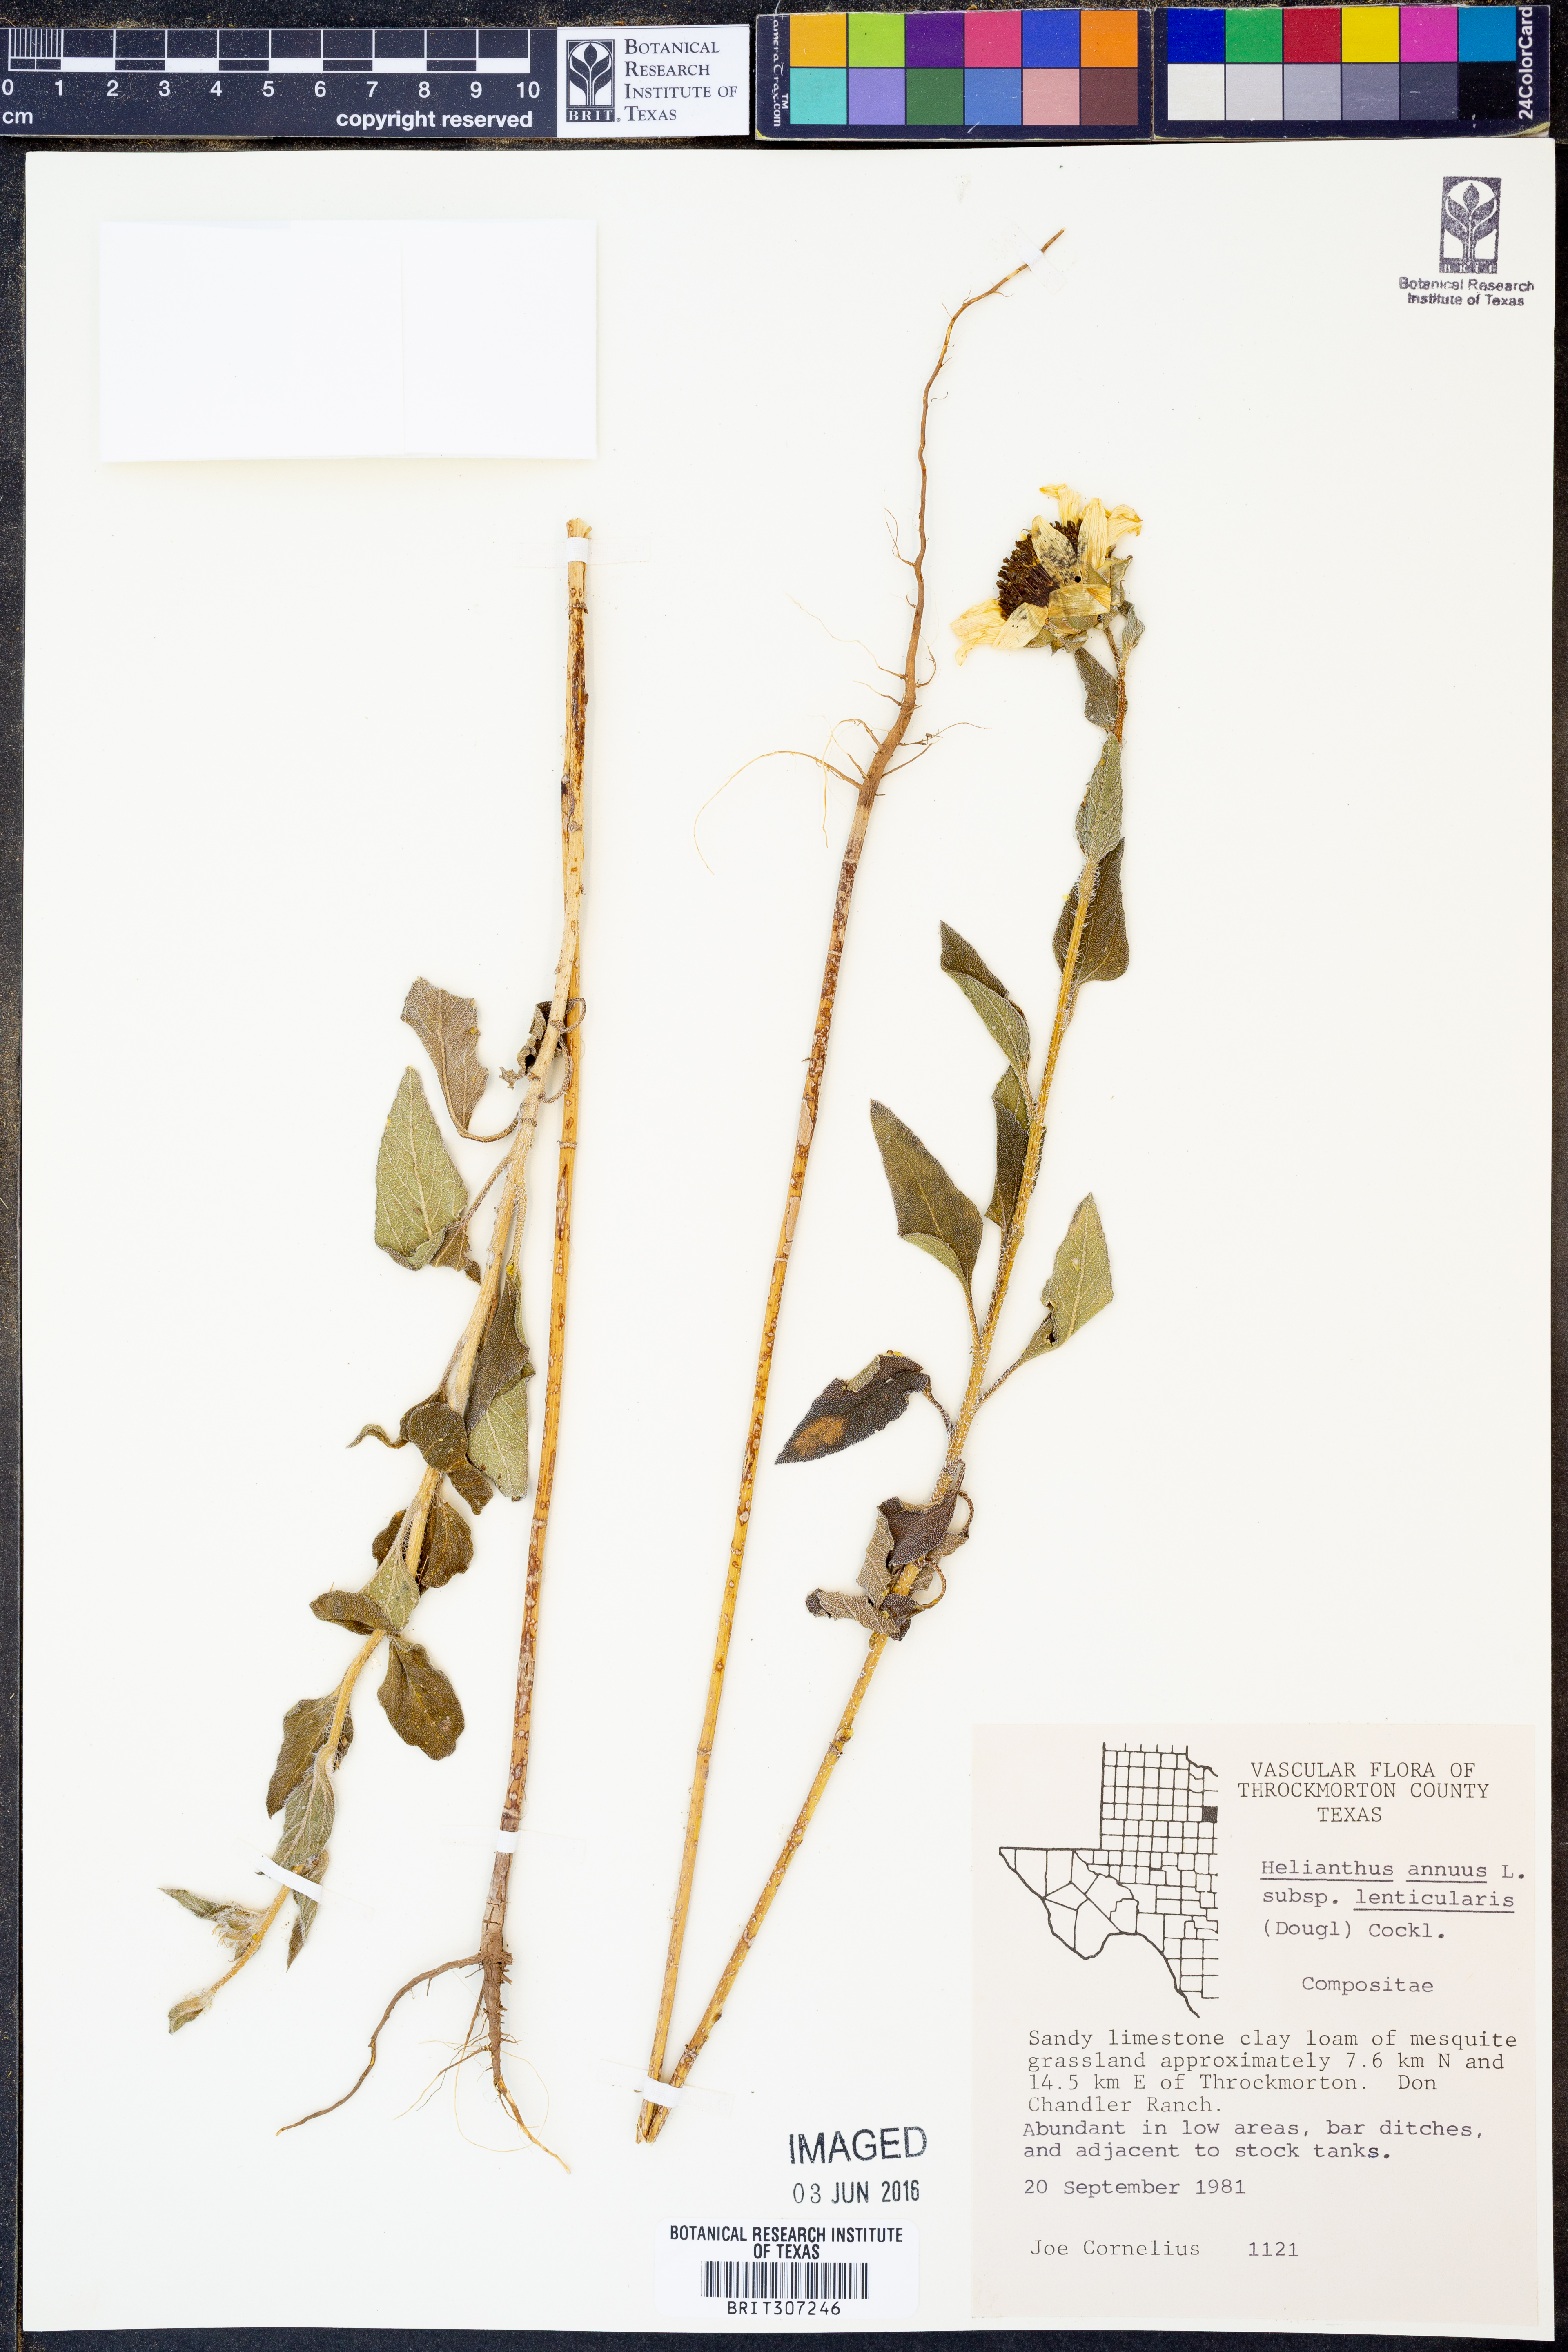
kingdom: Plantae
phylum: Tracheophyta
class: Magnoliopsida
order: Asterales
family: Asteraceae
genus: Helianthus
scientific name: Helianthus annuus
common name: Sunflower
